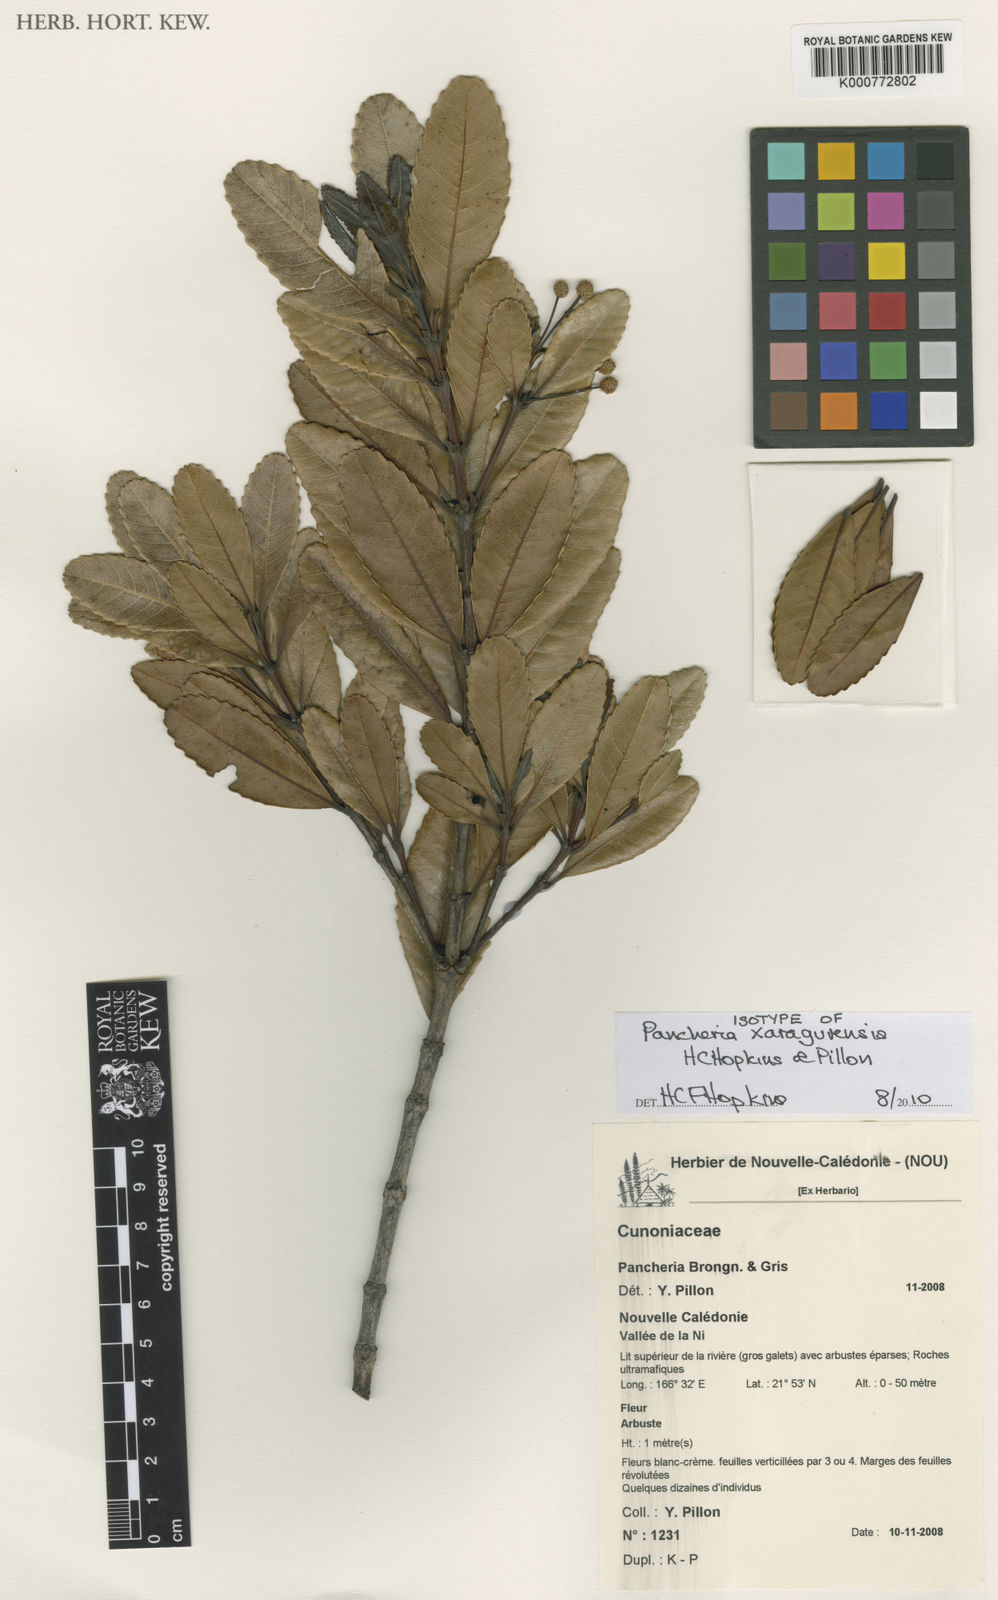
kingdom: Plantae
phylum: Tracheophyta
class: Magnoliopsida
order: Oxalidales
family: Cunoniaceae
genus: Pancheria
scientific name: Pancheria xaragurensis
